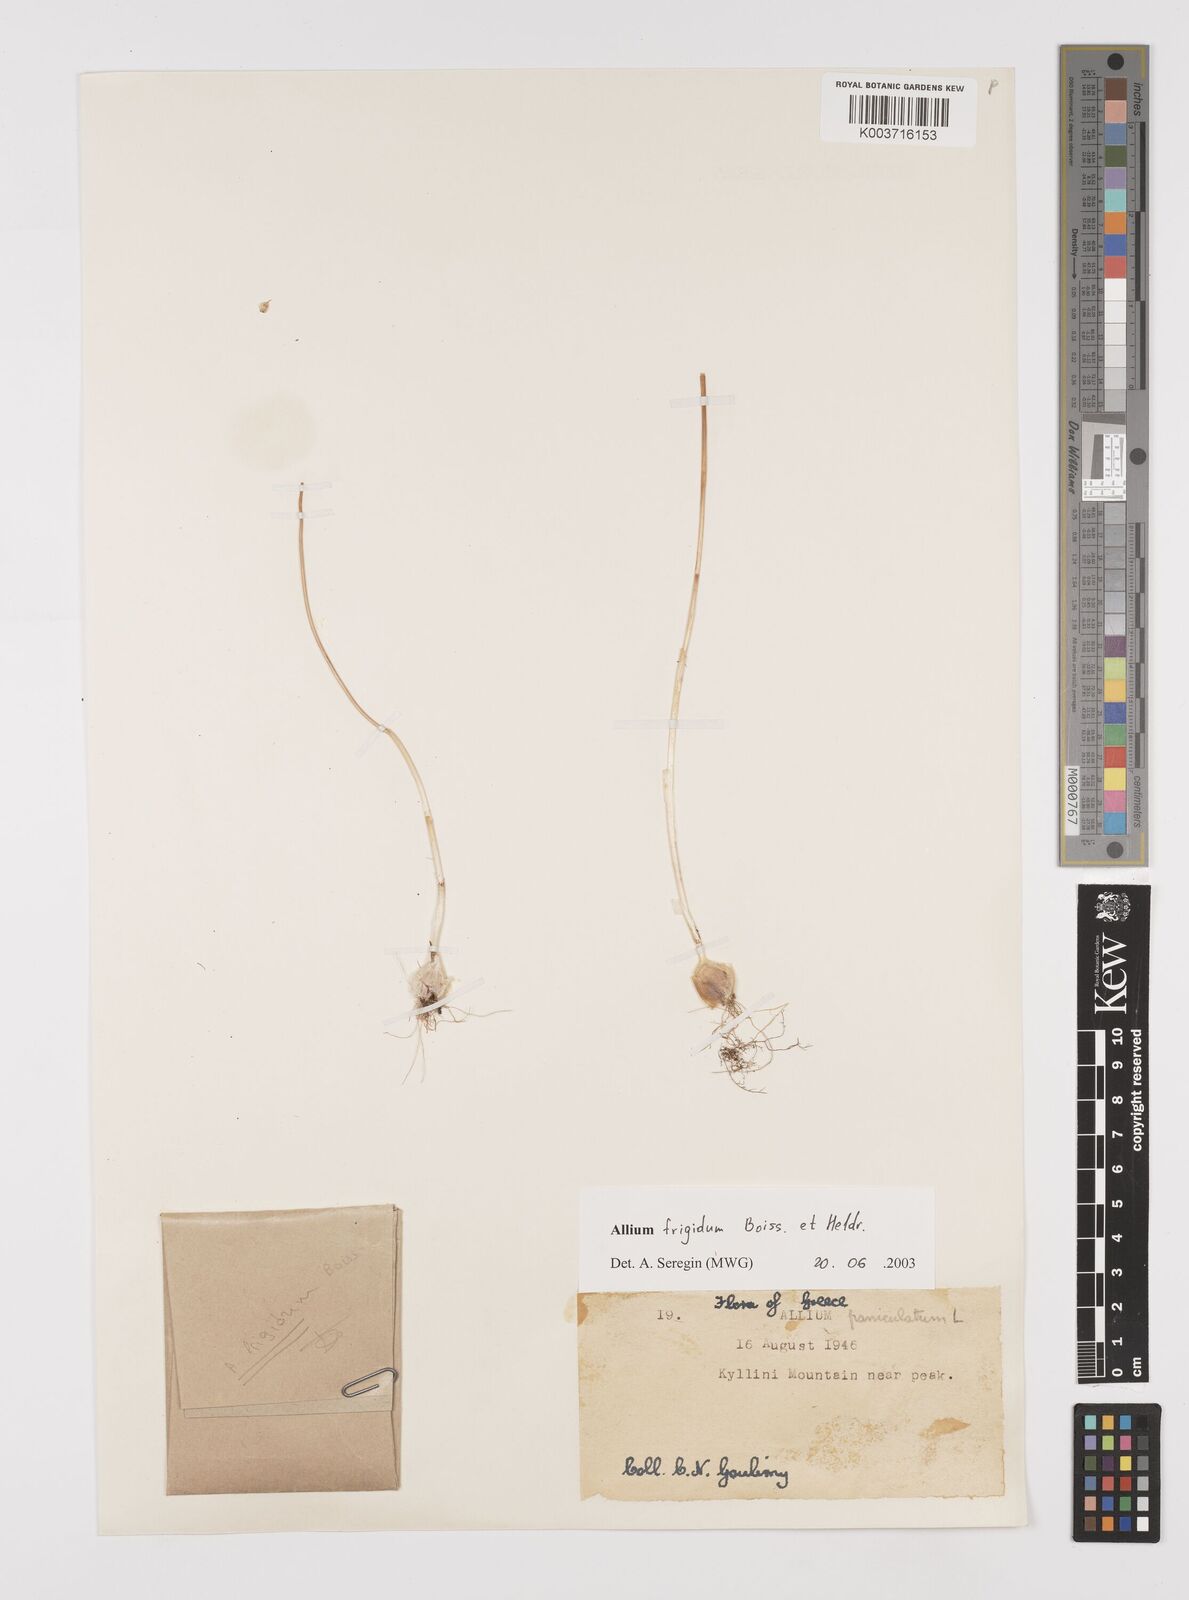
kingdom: Plantae
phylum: Tracheophyta
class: Liliopsida
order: Asparagales
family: Amaryllidaceae
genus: Allium
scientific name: Allium frigidum
